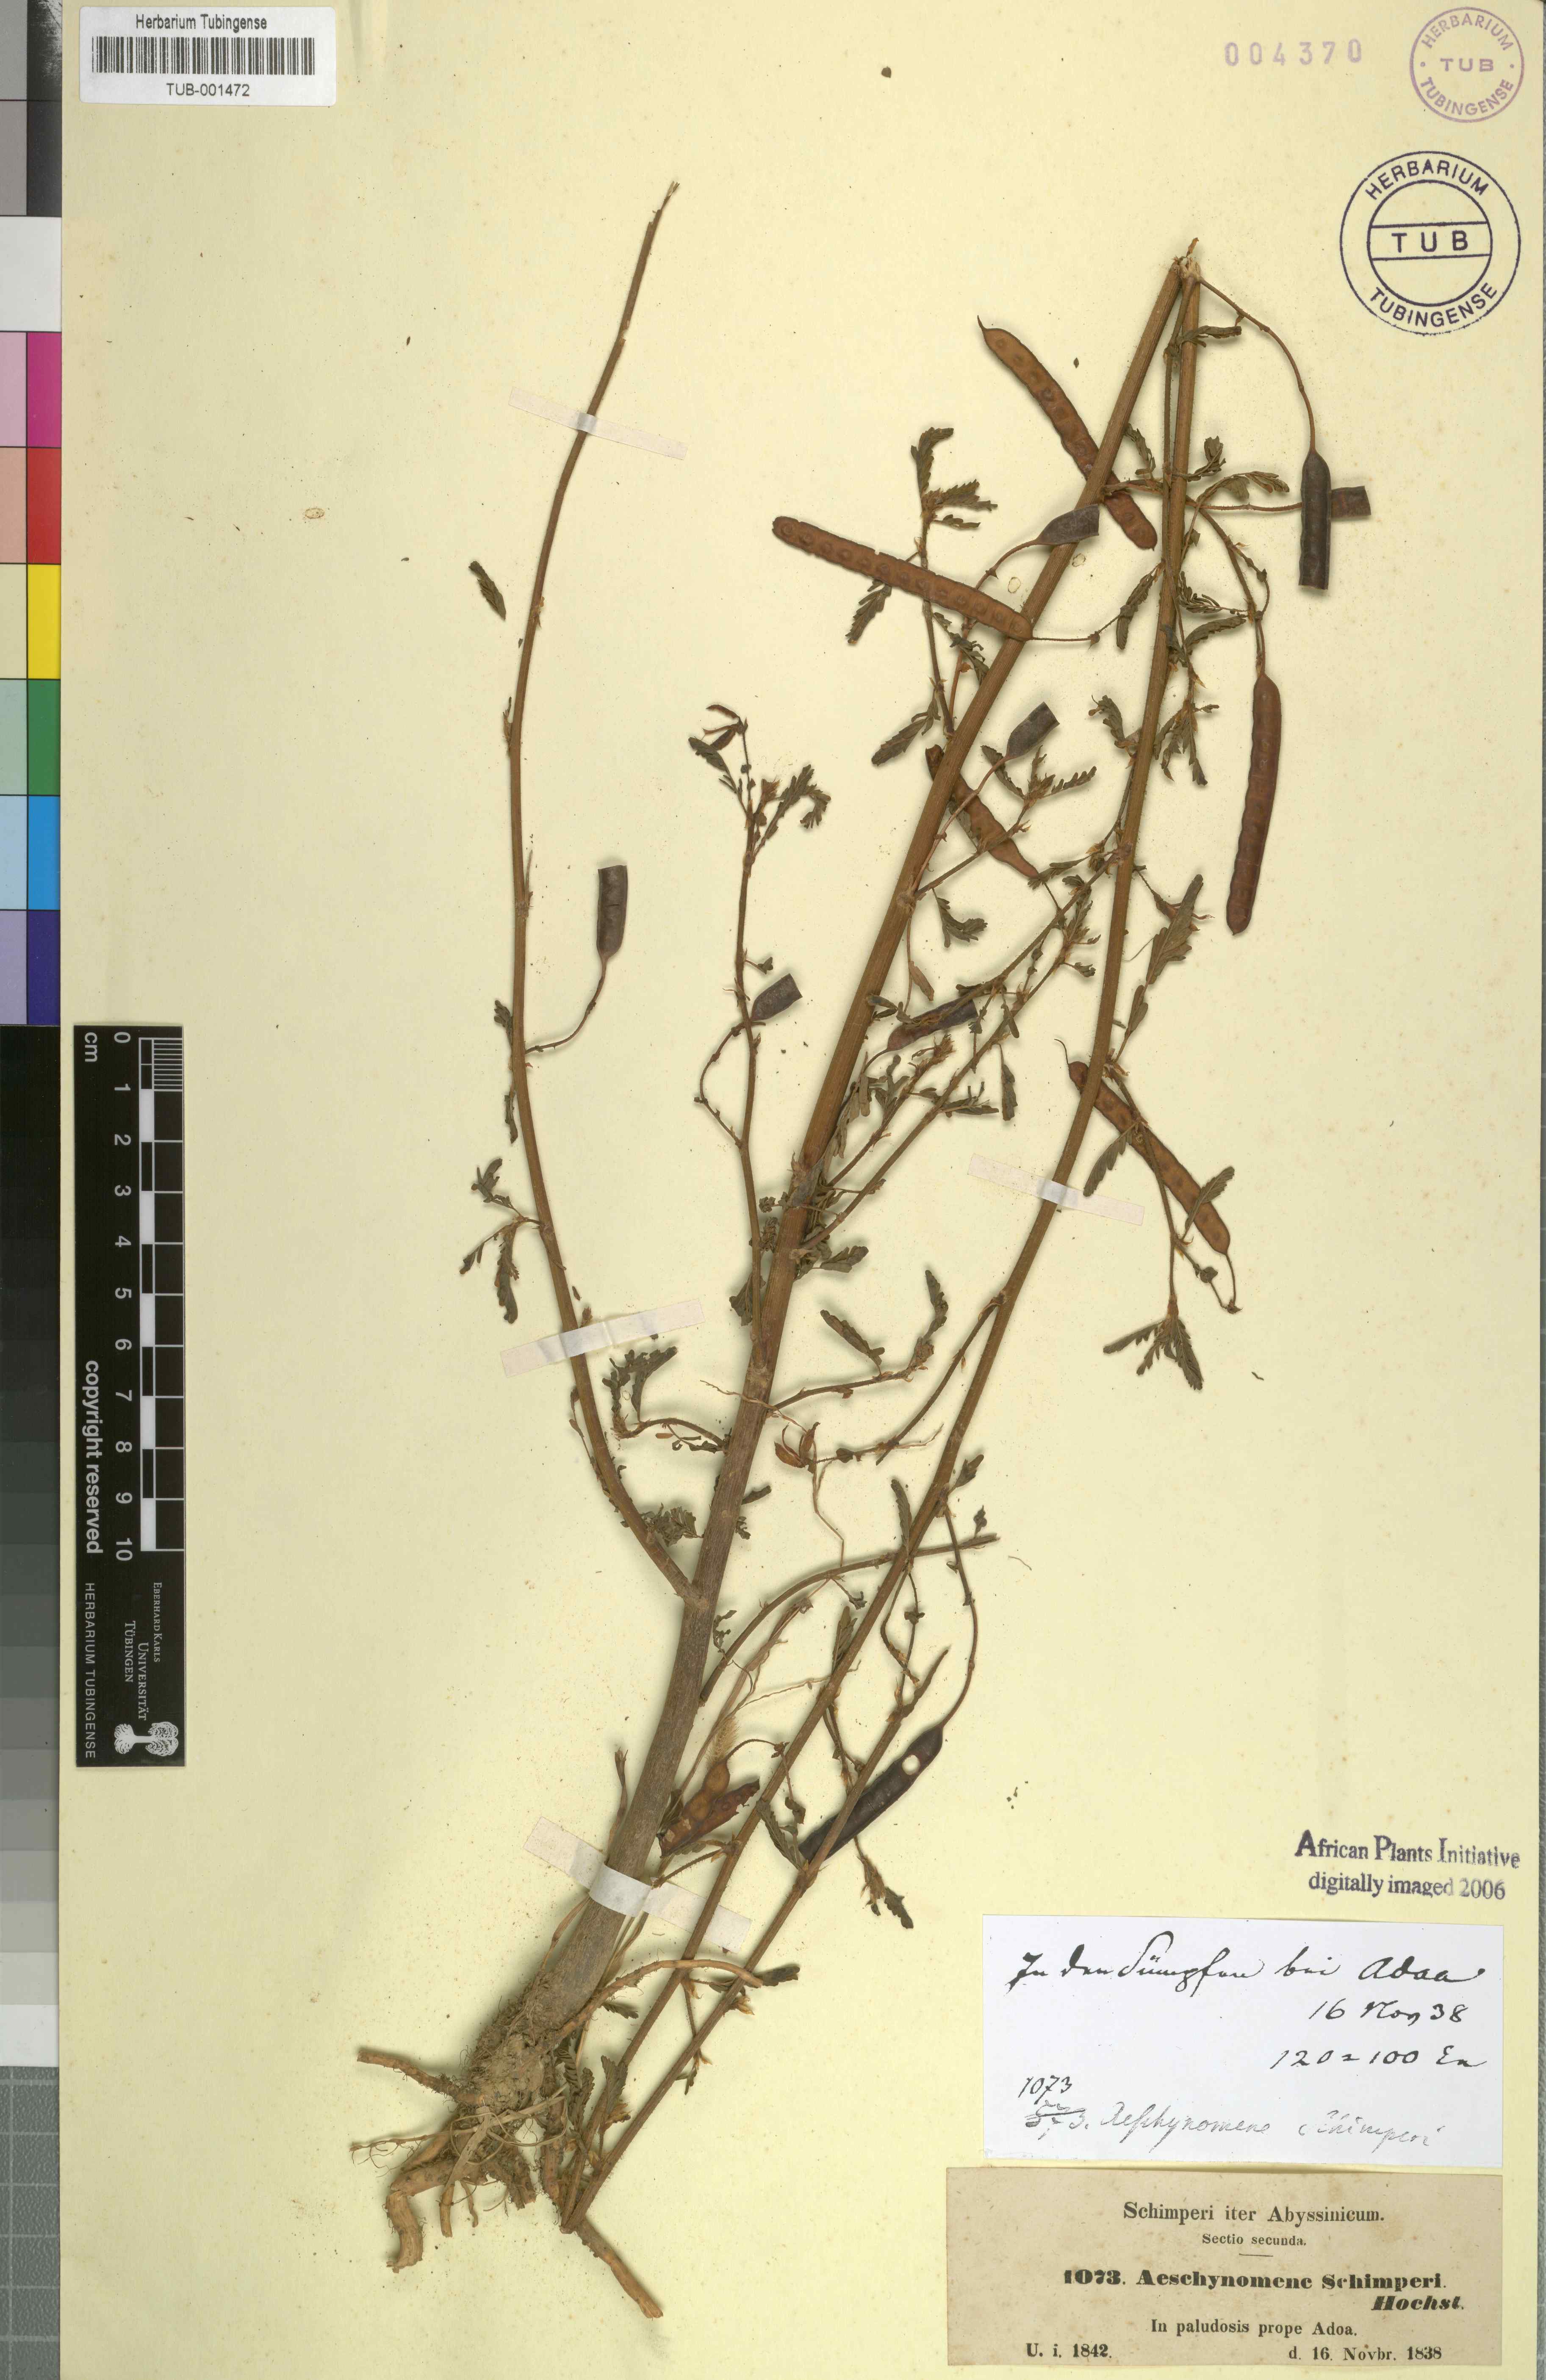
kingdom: Plantae
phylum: Tracheophyta
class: Magnoliopsida
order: Fabales
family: Fabaceae
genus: Aeschynomene
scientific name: Aeschynomene schimperi
